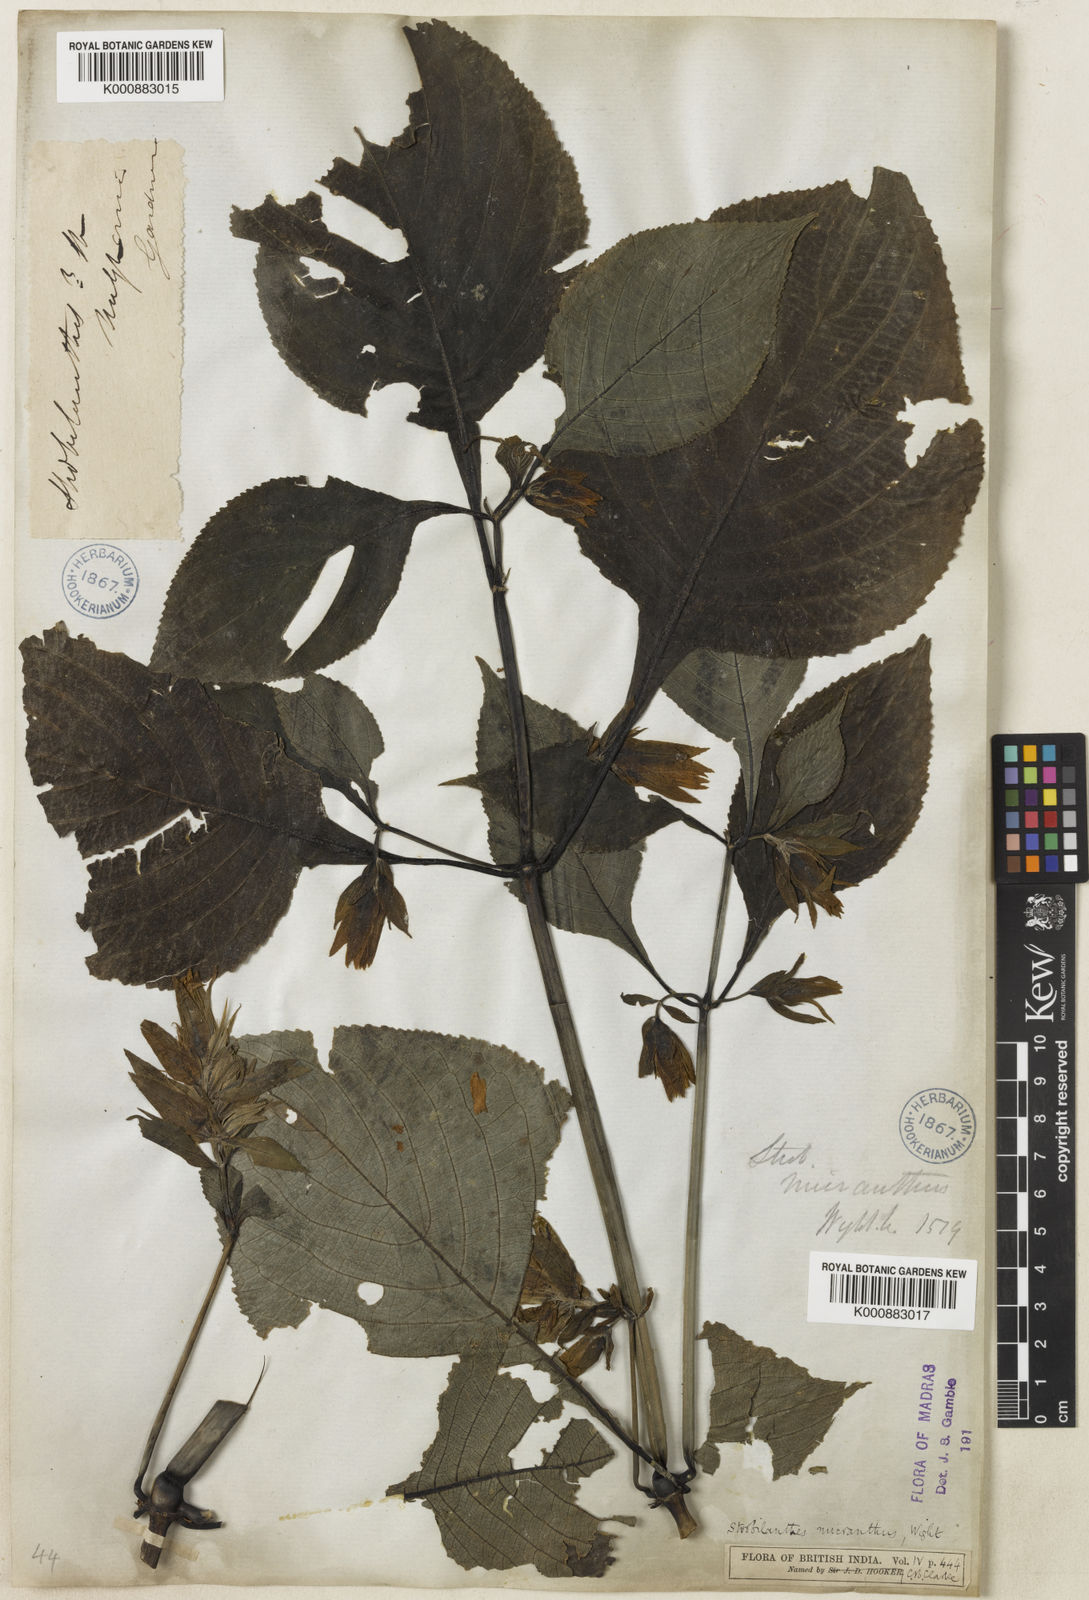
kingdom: Plantae
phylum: Tracheophyta
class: Magnoliopsida
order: Lamiales
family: Acanthaceae
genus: Strobilanthes
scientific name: Strobilanthes micrantha
